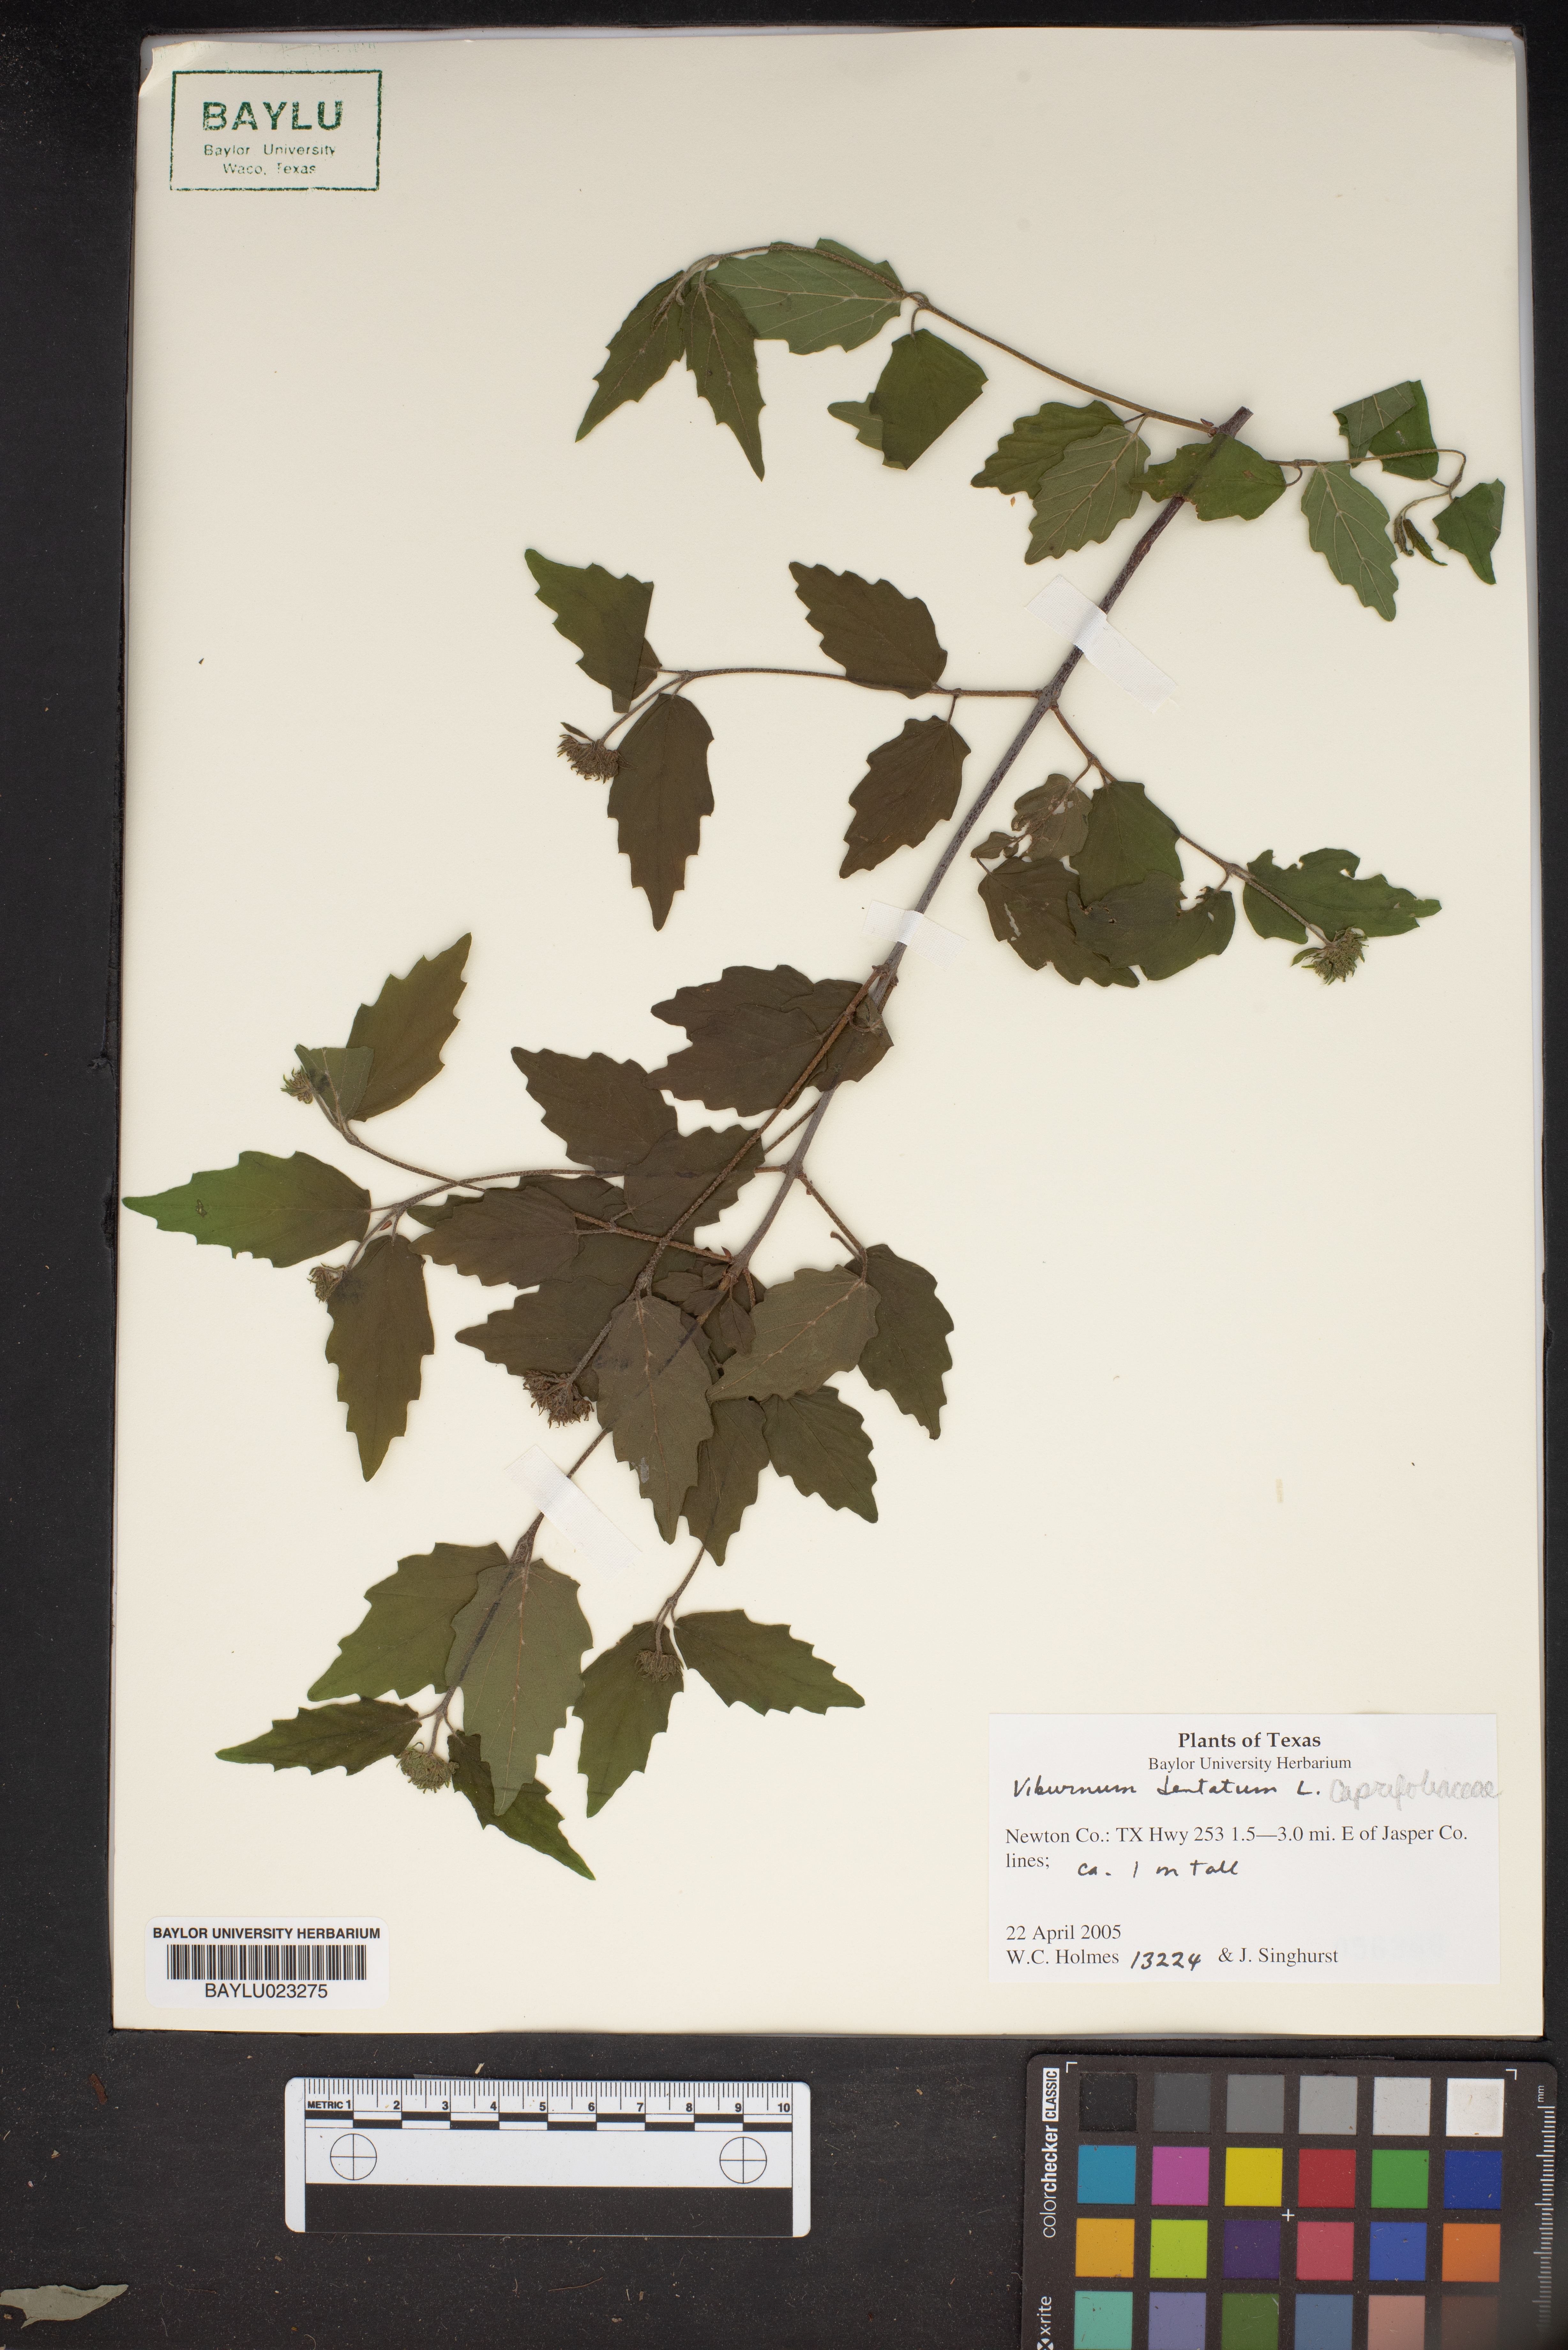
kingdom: Plantae
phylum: Tracheophyta
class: Magnoliopsida
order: Dipsacales
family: Viburnaceae
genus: Viburnum
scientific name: Viburnum dentatum
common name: Arrow-wood
